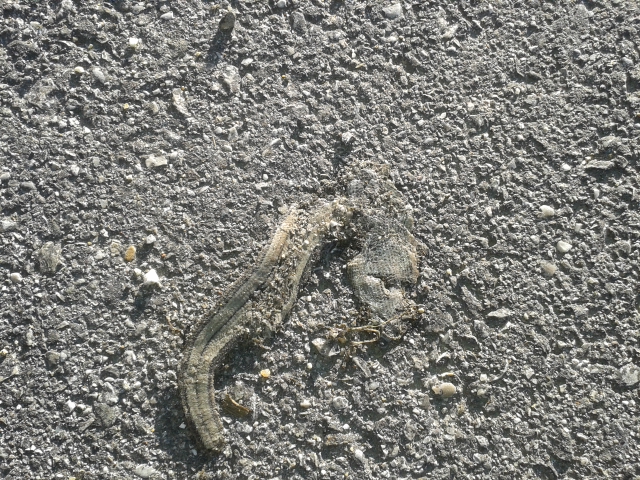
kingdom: Animalia
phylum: Chordata
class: Squamata
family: Anguidae
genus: Anguis
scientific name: Anguis fragilis
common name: Slow worm
